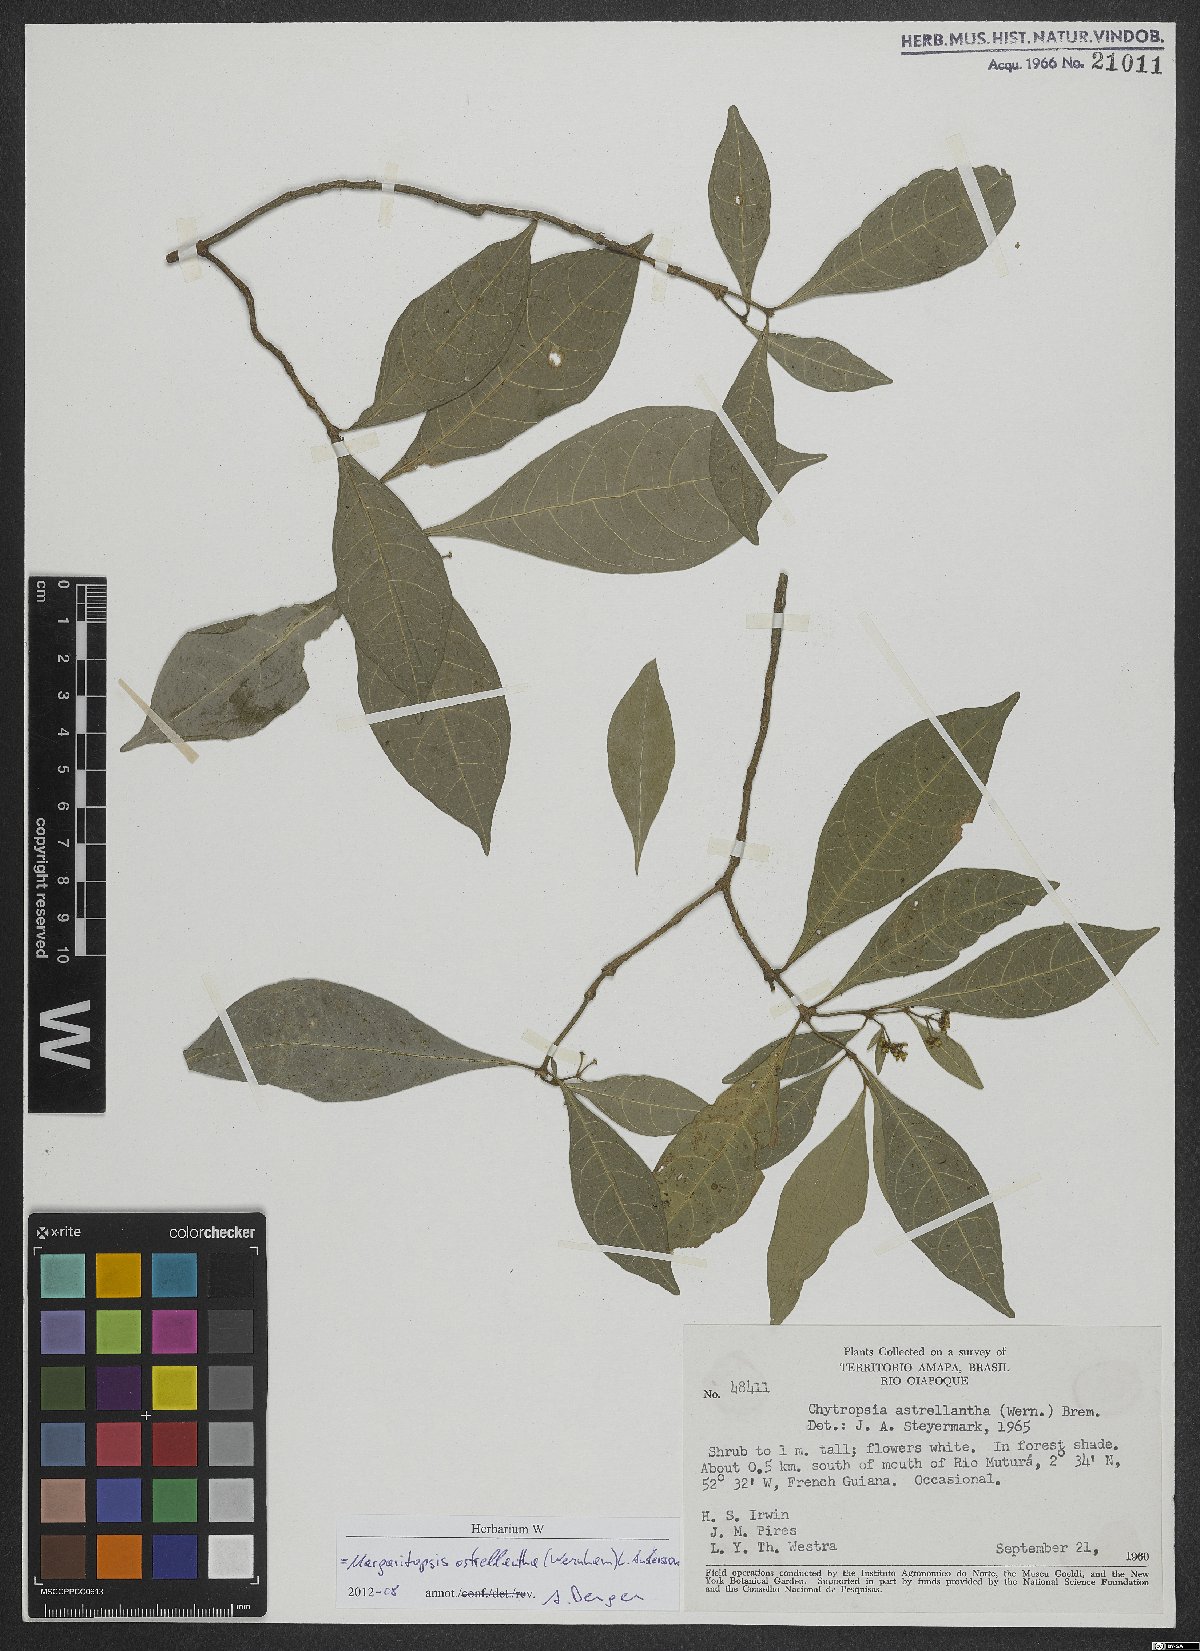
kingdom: Plantae
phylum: Tracheophyta
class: Magnoliopsida
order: Gentianales
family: Rubiaceae
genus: Eumachia
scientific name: Eumachia astrellantha
